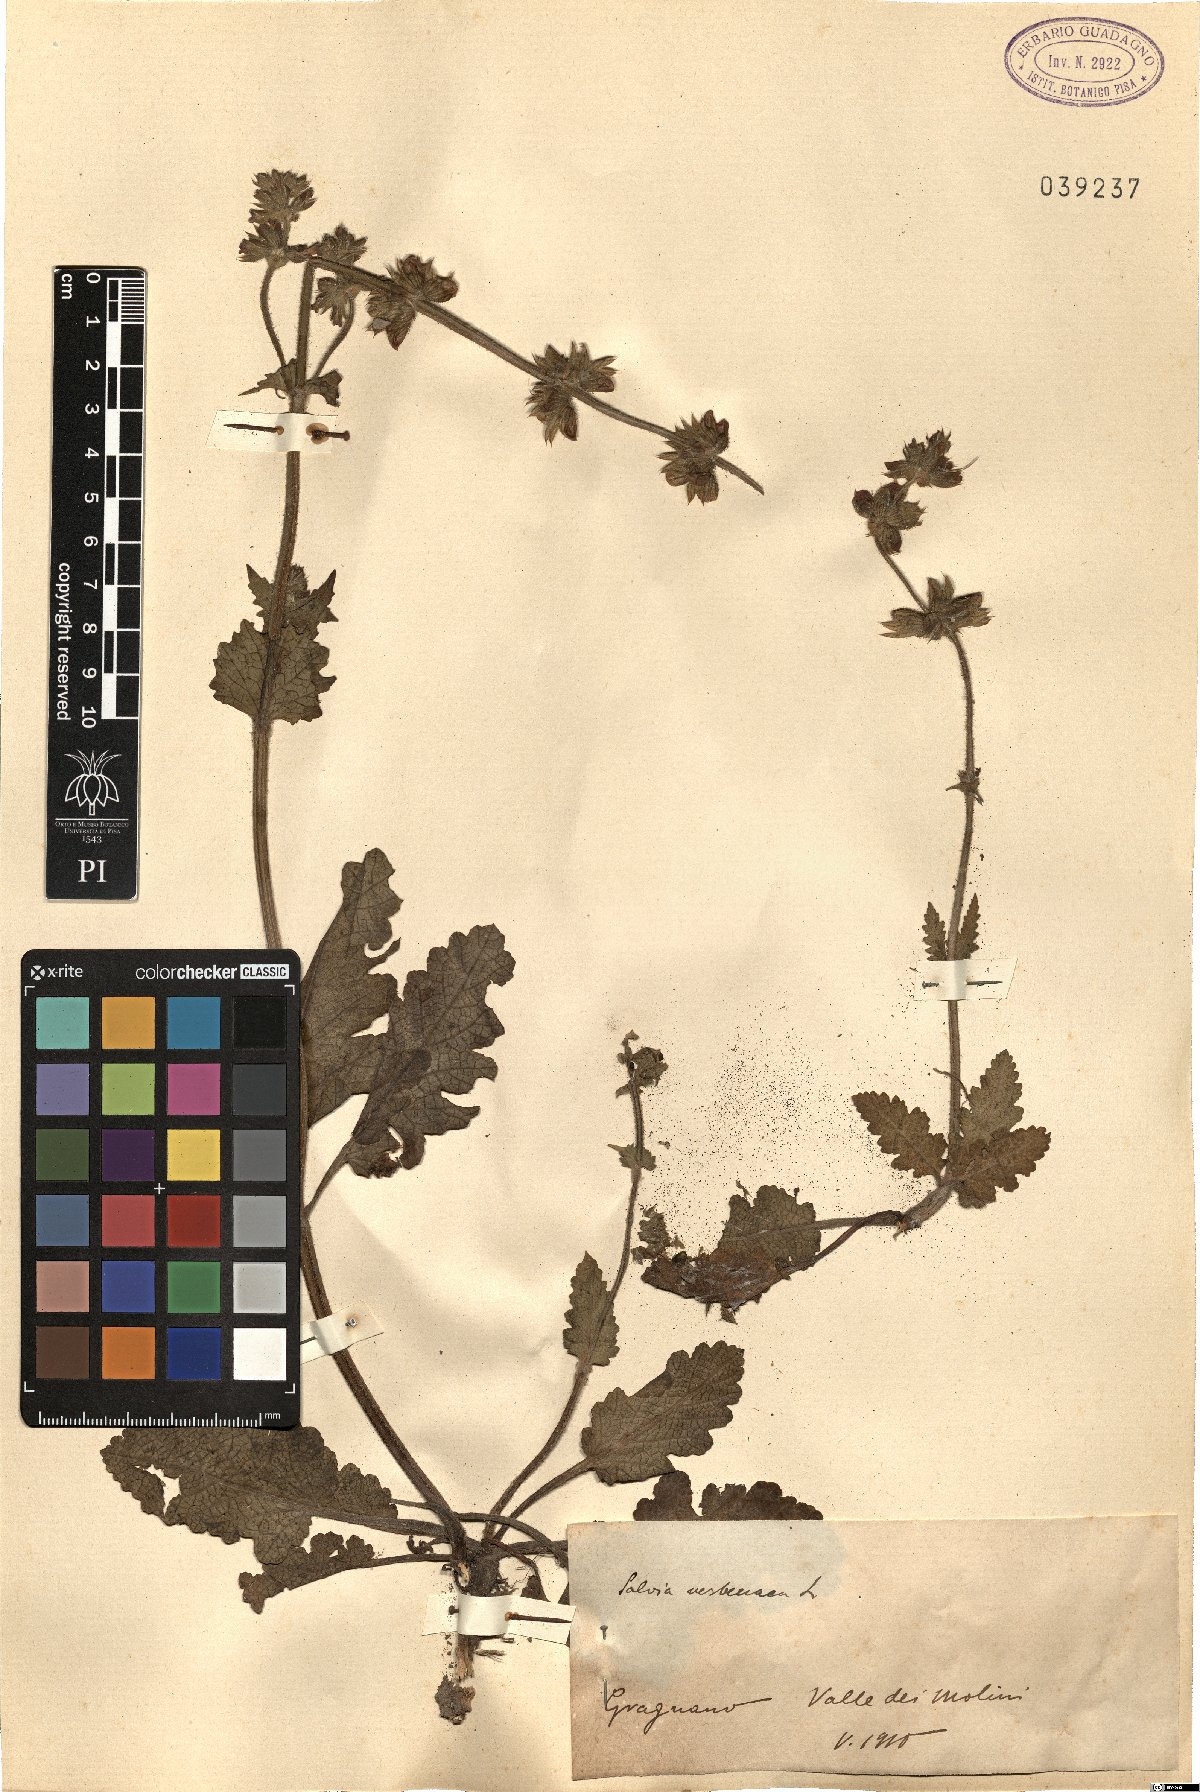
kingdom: Plantae
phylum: Tracheophyta
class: Magnoliopsida
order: Lamiales
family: Lamiaceae
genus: Salvia
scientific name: Salvia verbenaca
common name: Wild clary
